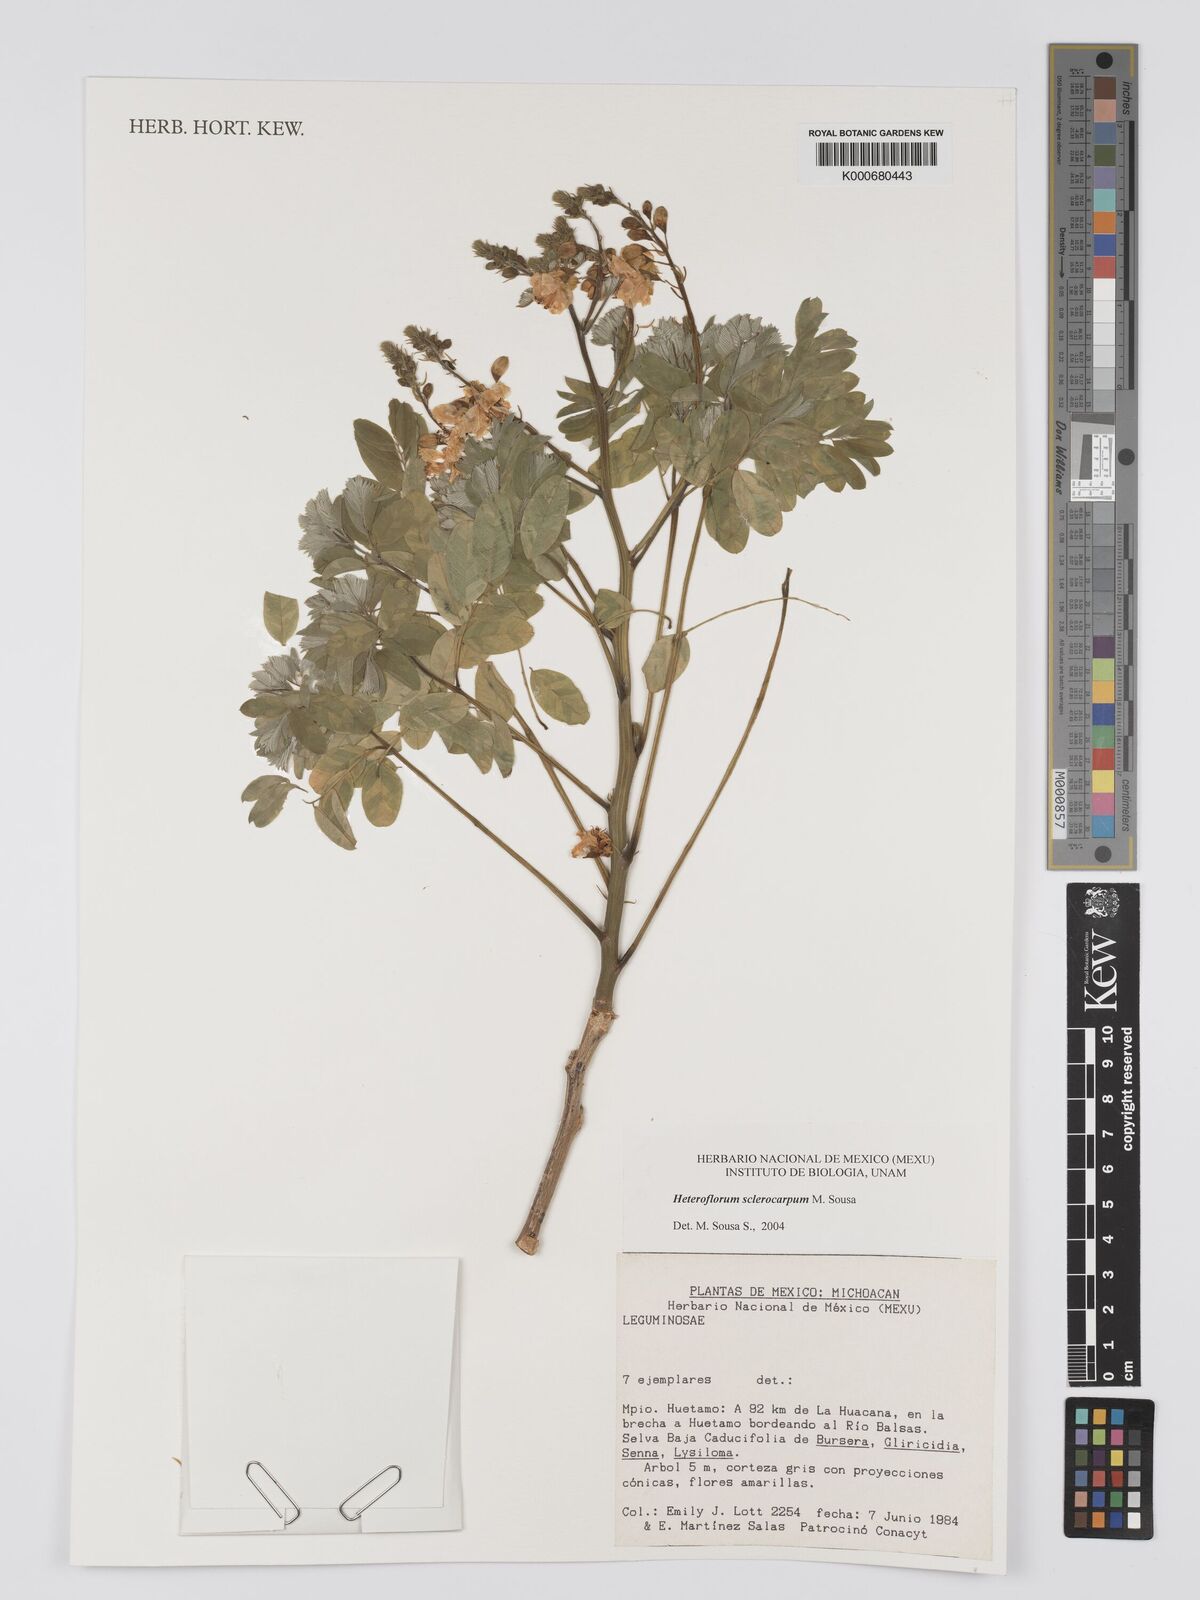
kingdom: Plantae
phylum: Tracheophyta
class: Magnoliopsida
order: Fabales
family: Fabaceae
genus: Heteroflorum
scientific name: Heteroflorum sclerocarpum
